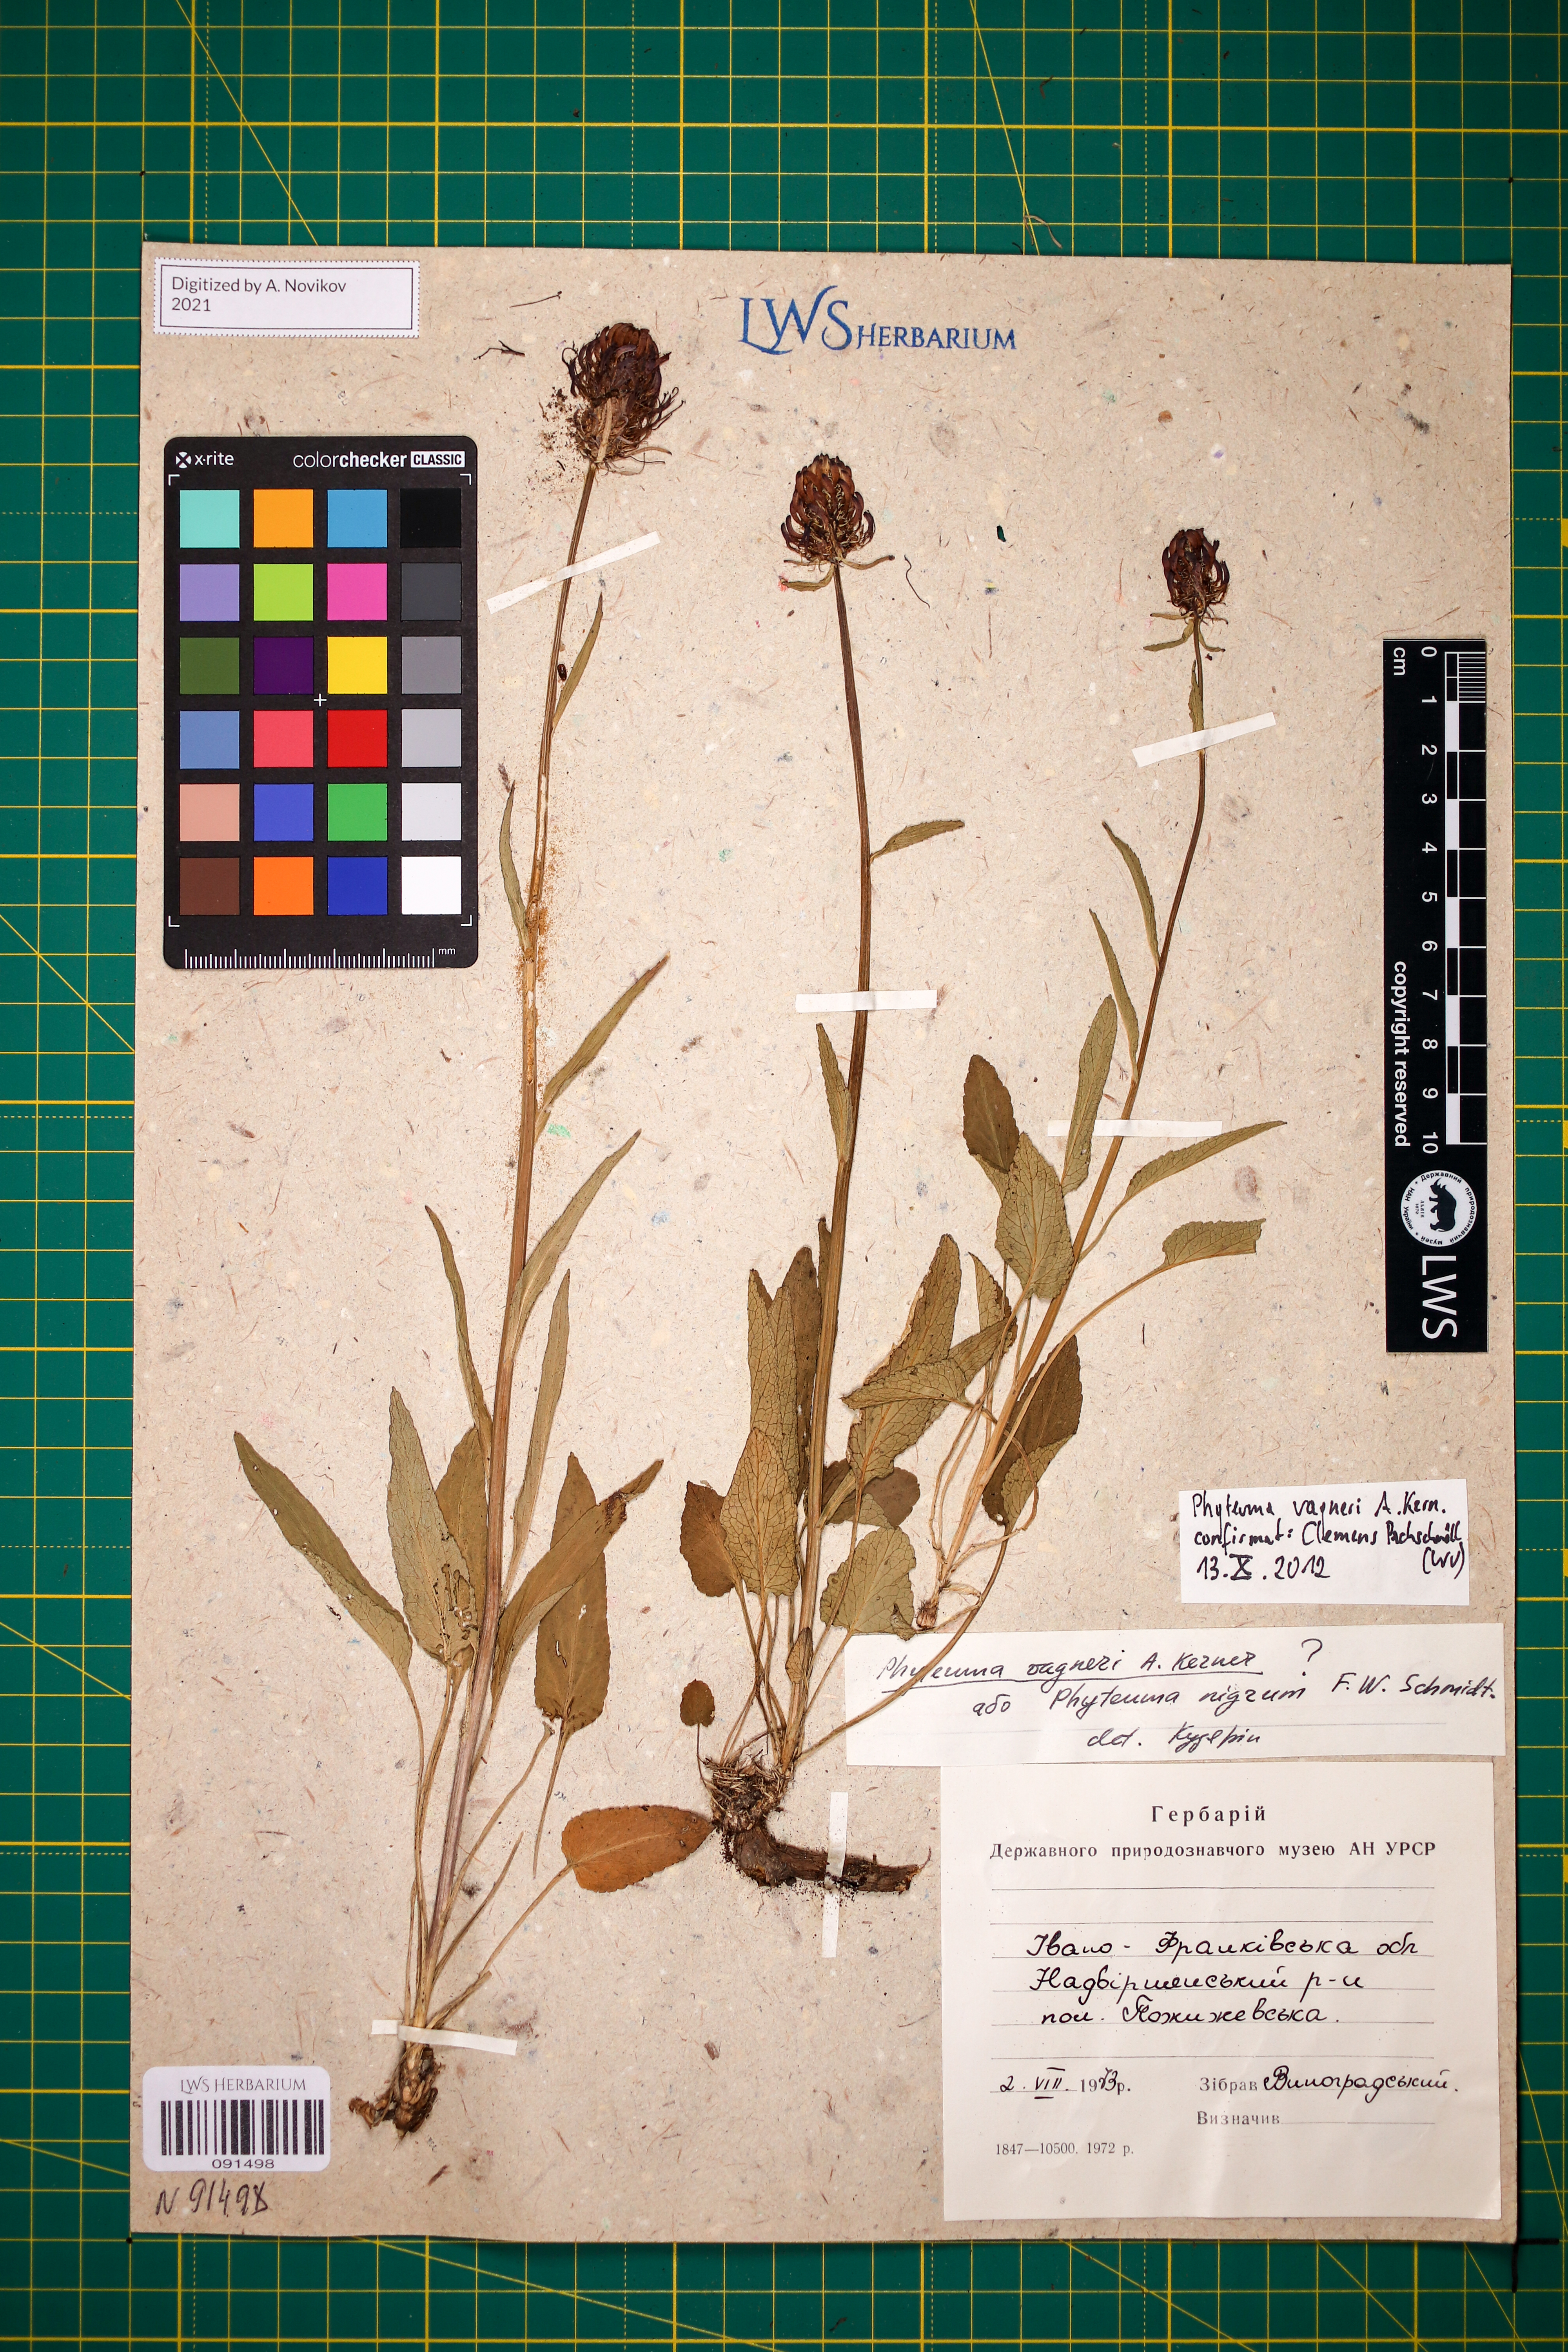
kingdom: Plantae
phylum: Tracheophyta
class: Magnoliopsida
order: Asterales
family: Campanulaceae
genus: Phyteuma
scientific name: Phyteuma vagneri
